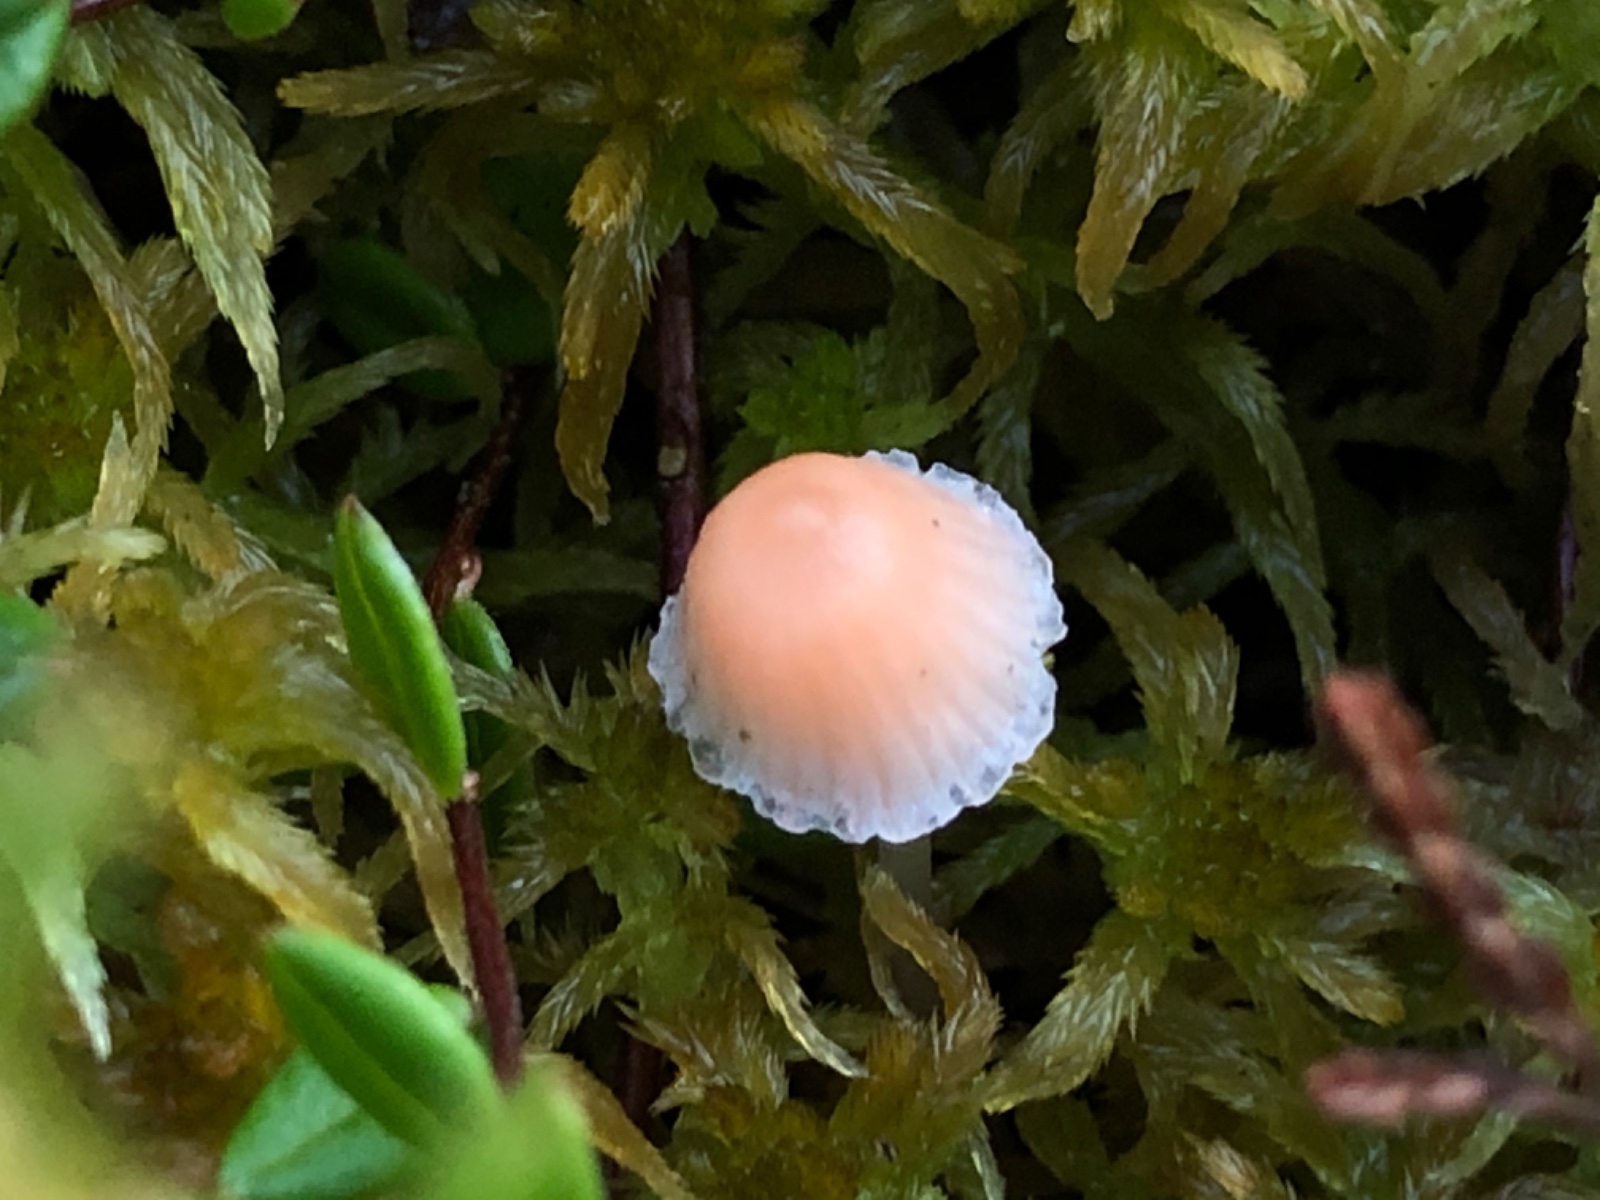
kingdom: Fungi
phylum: Basidiomycota
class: Agaricomycetes
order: Agaricales
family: Mycenaceae
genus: Atheniella
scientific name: Atheniella adonis
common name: rønnerød huesvamp
